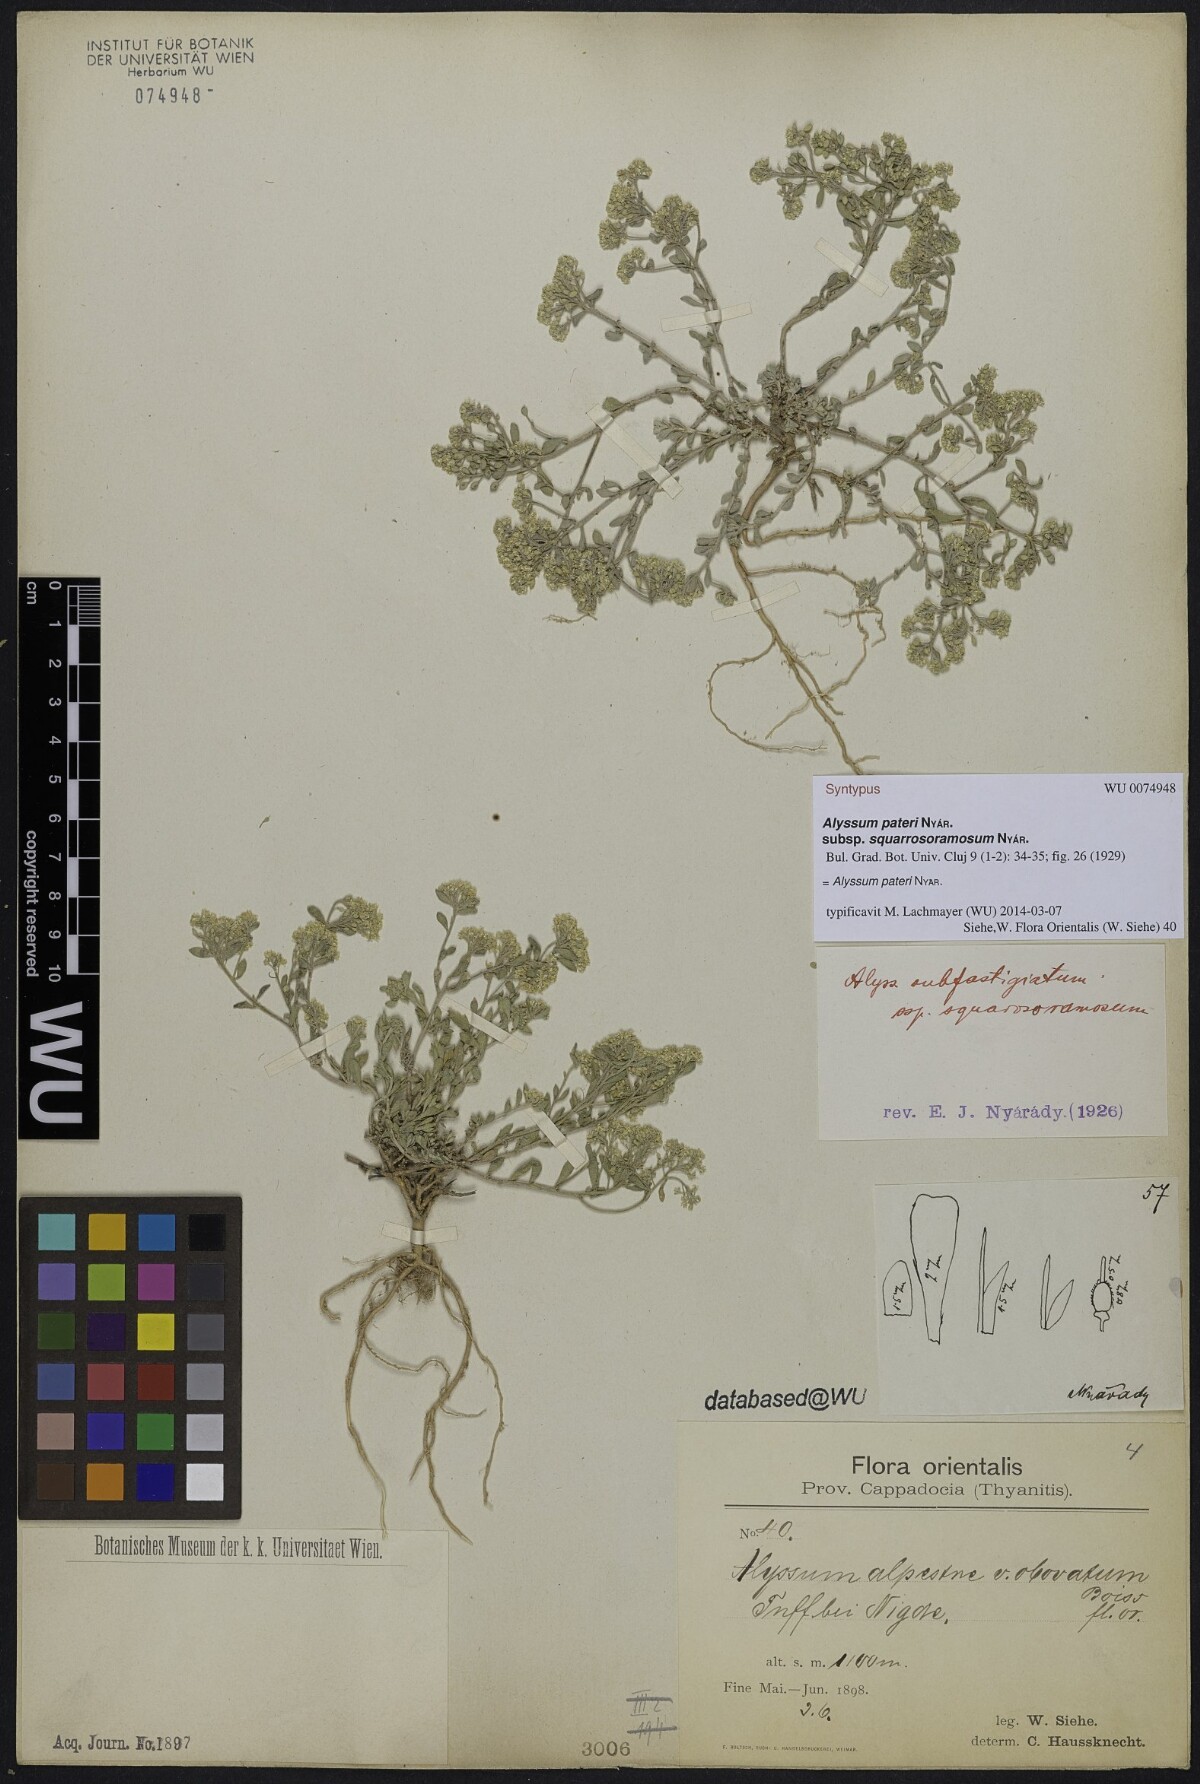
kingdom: Plantae
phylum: Tracheophyta
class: Magnoliopsida
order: Brassicales
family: Brassicaceae
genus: Odontarrhena
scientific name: Odontarrhena pateri
